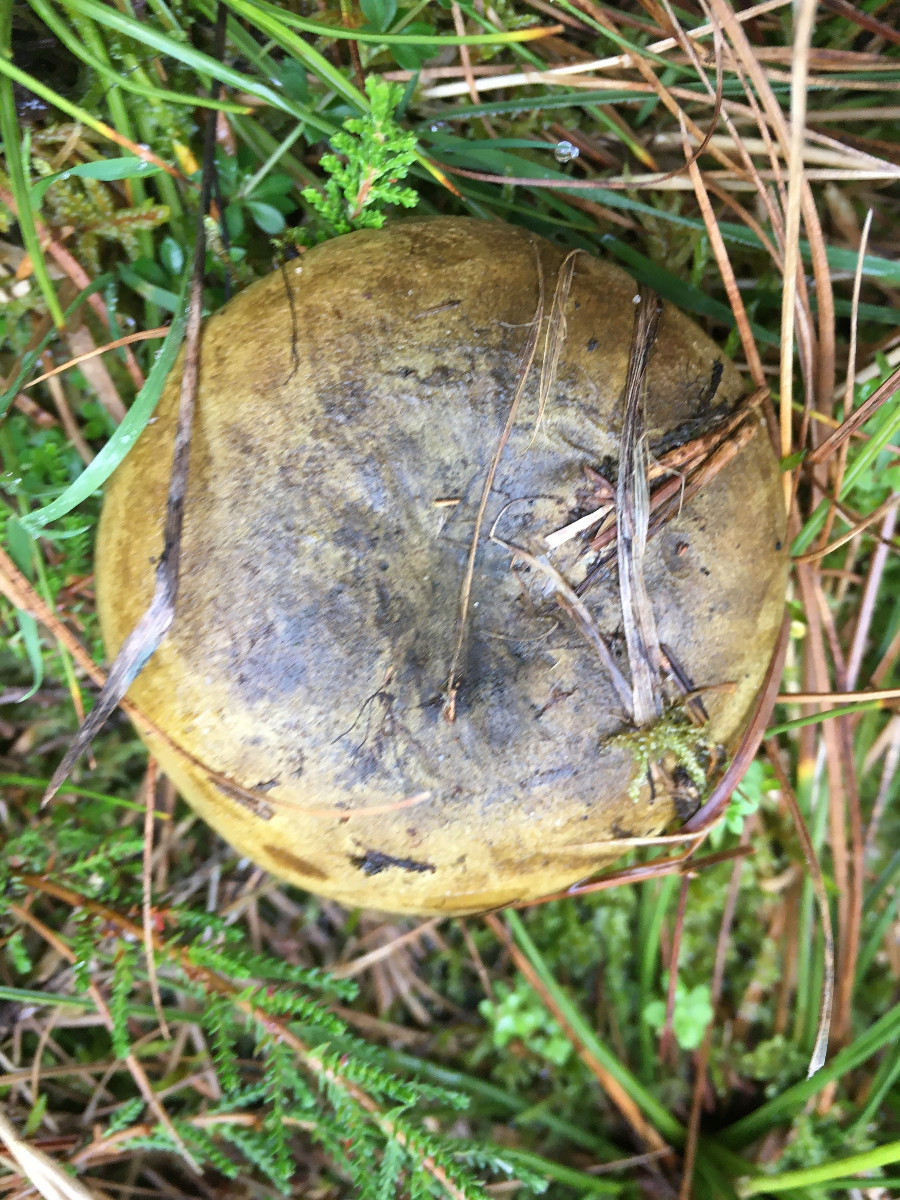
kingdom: Fungi
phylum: Basidiomycota
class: Agaricomycetes
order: Russulales
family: Russulaceae
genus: Lactarius
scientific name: Lactarius necator
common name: manddraber-mælkehat
